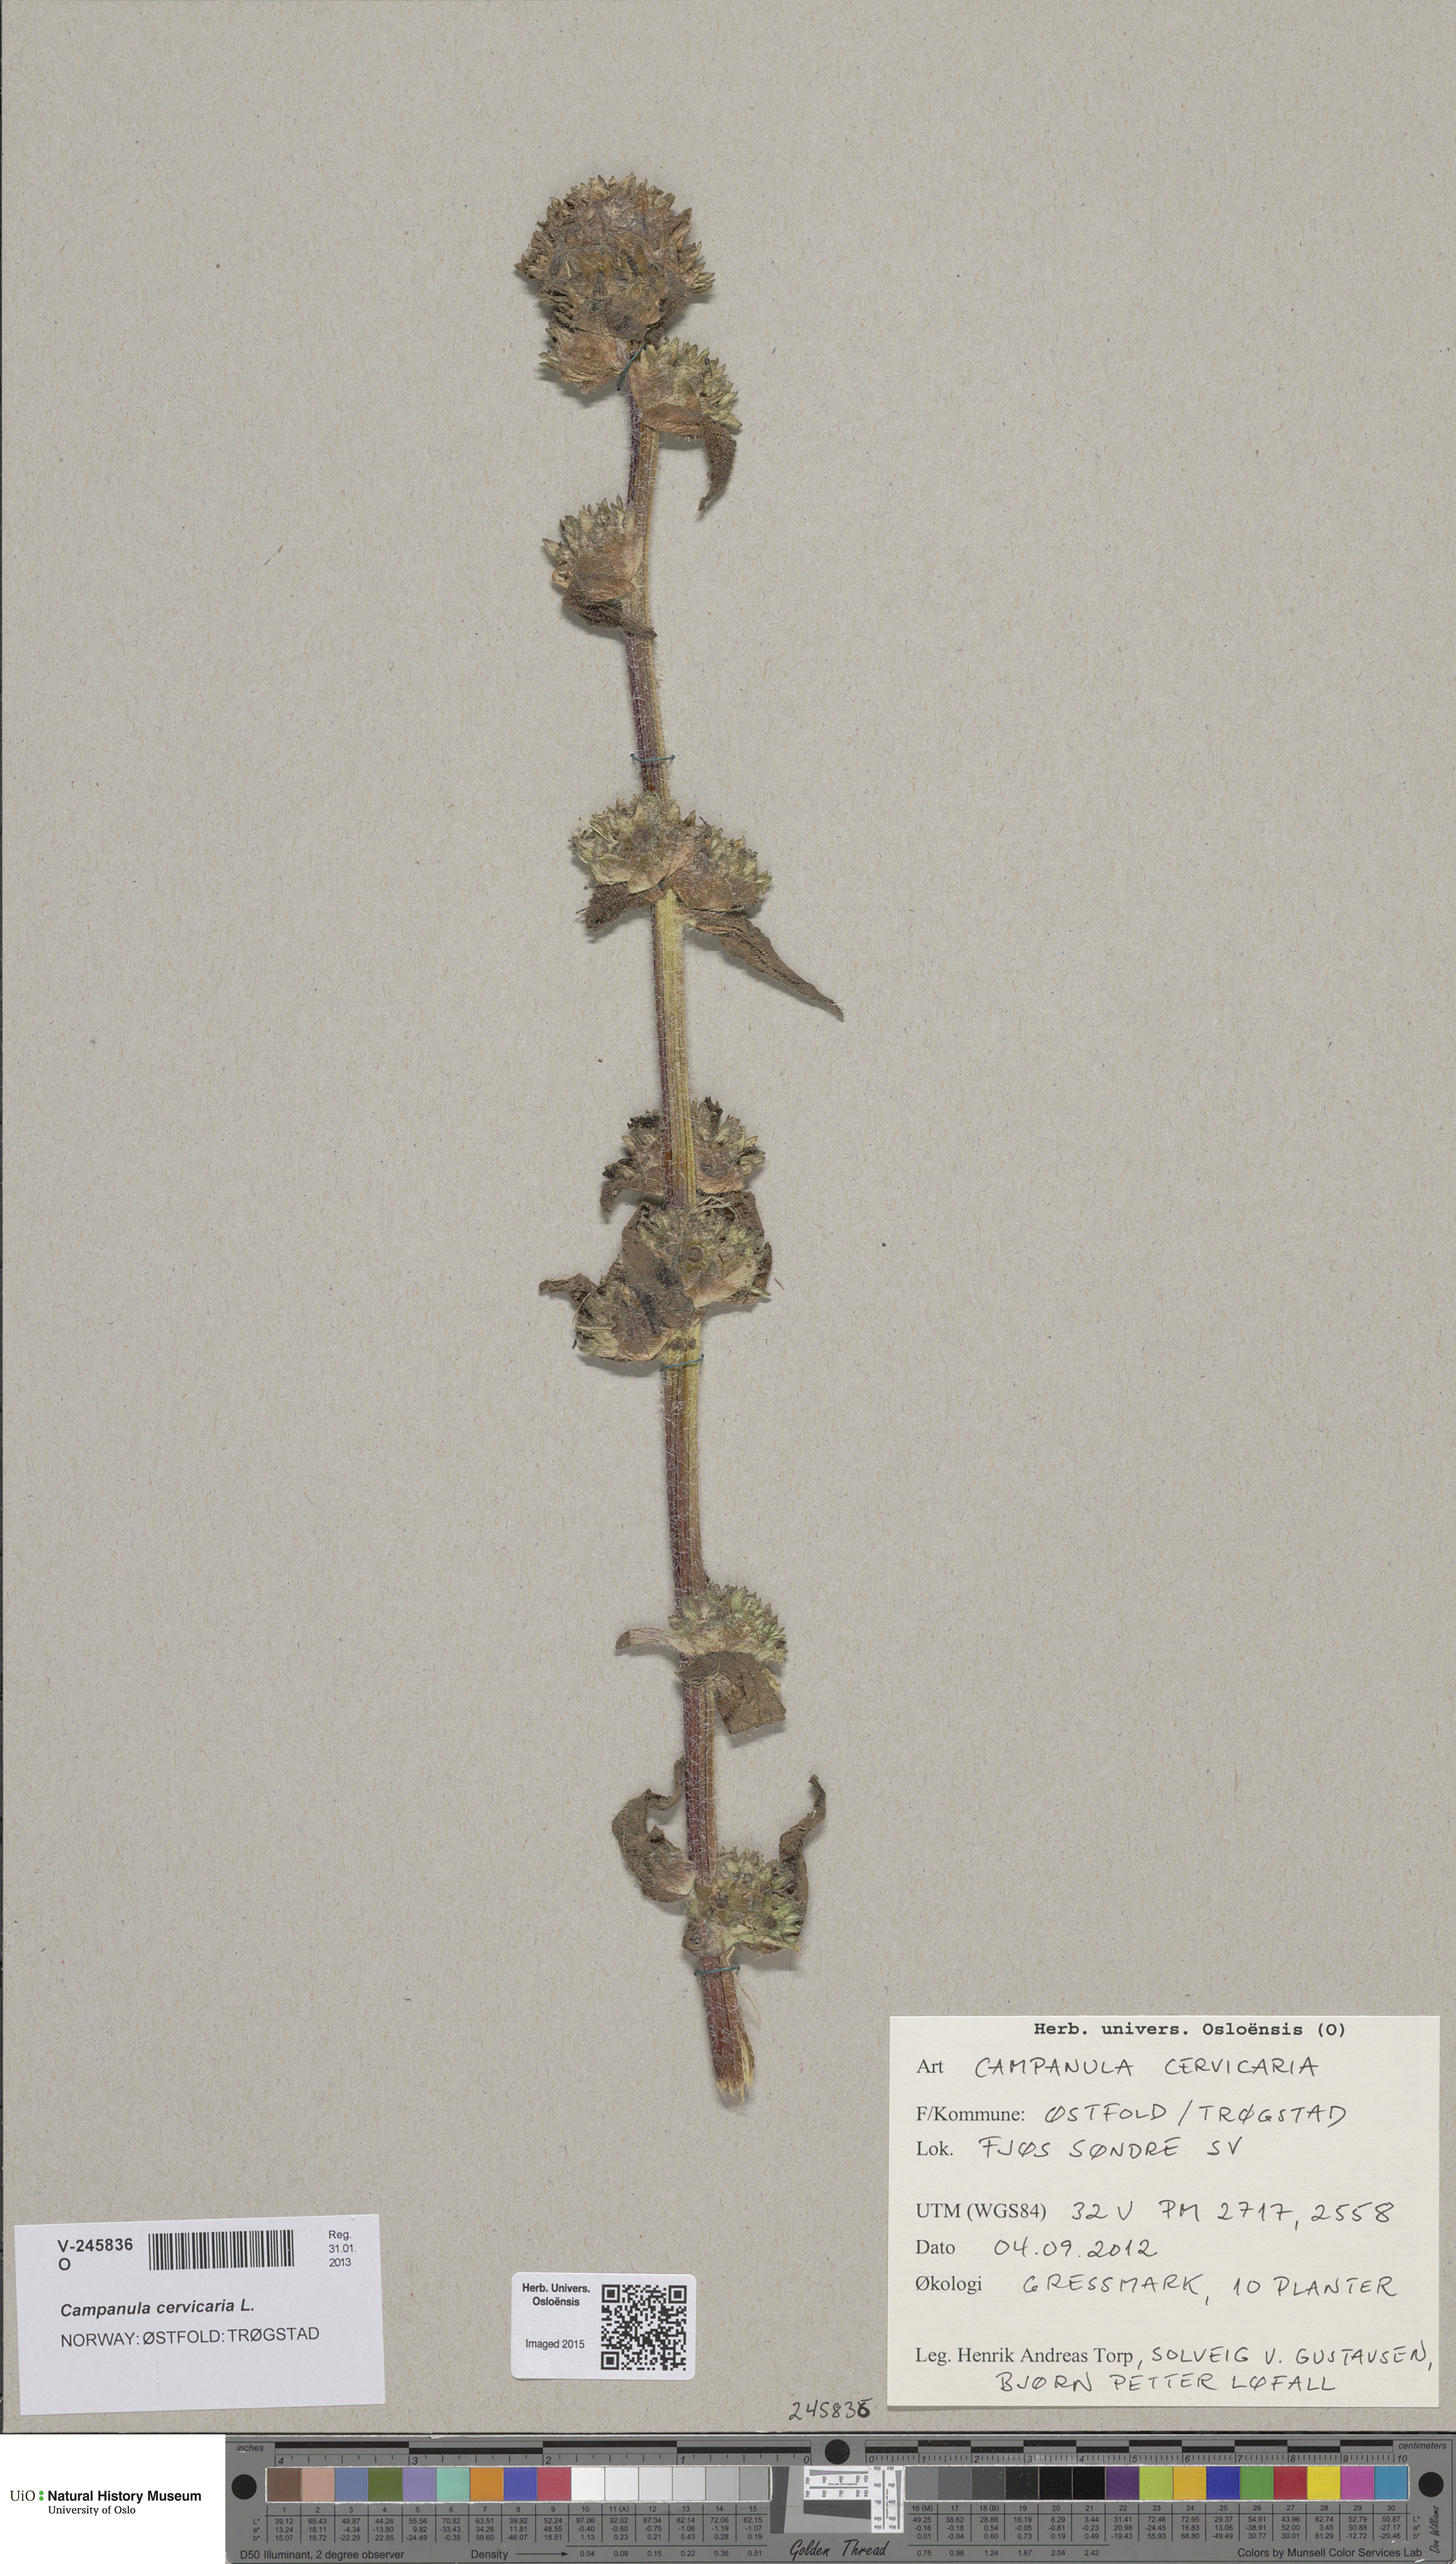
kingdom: Plantae
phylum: Tracheophyta
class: Magnoliopsida
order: Asterales
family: Campanulaceae
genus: Campanula
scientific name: Campanula cervicaria
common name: Bristly bellflower
